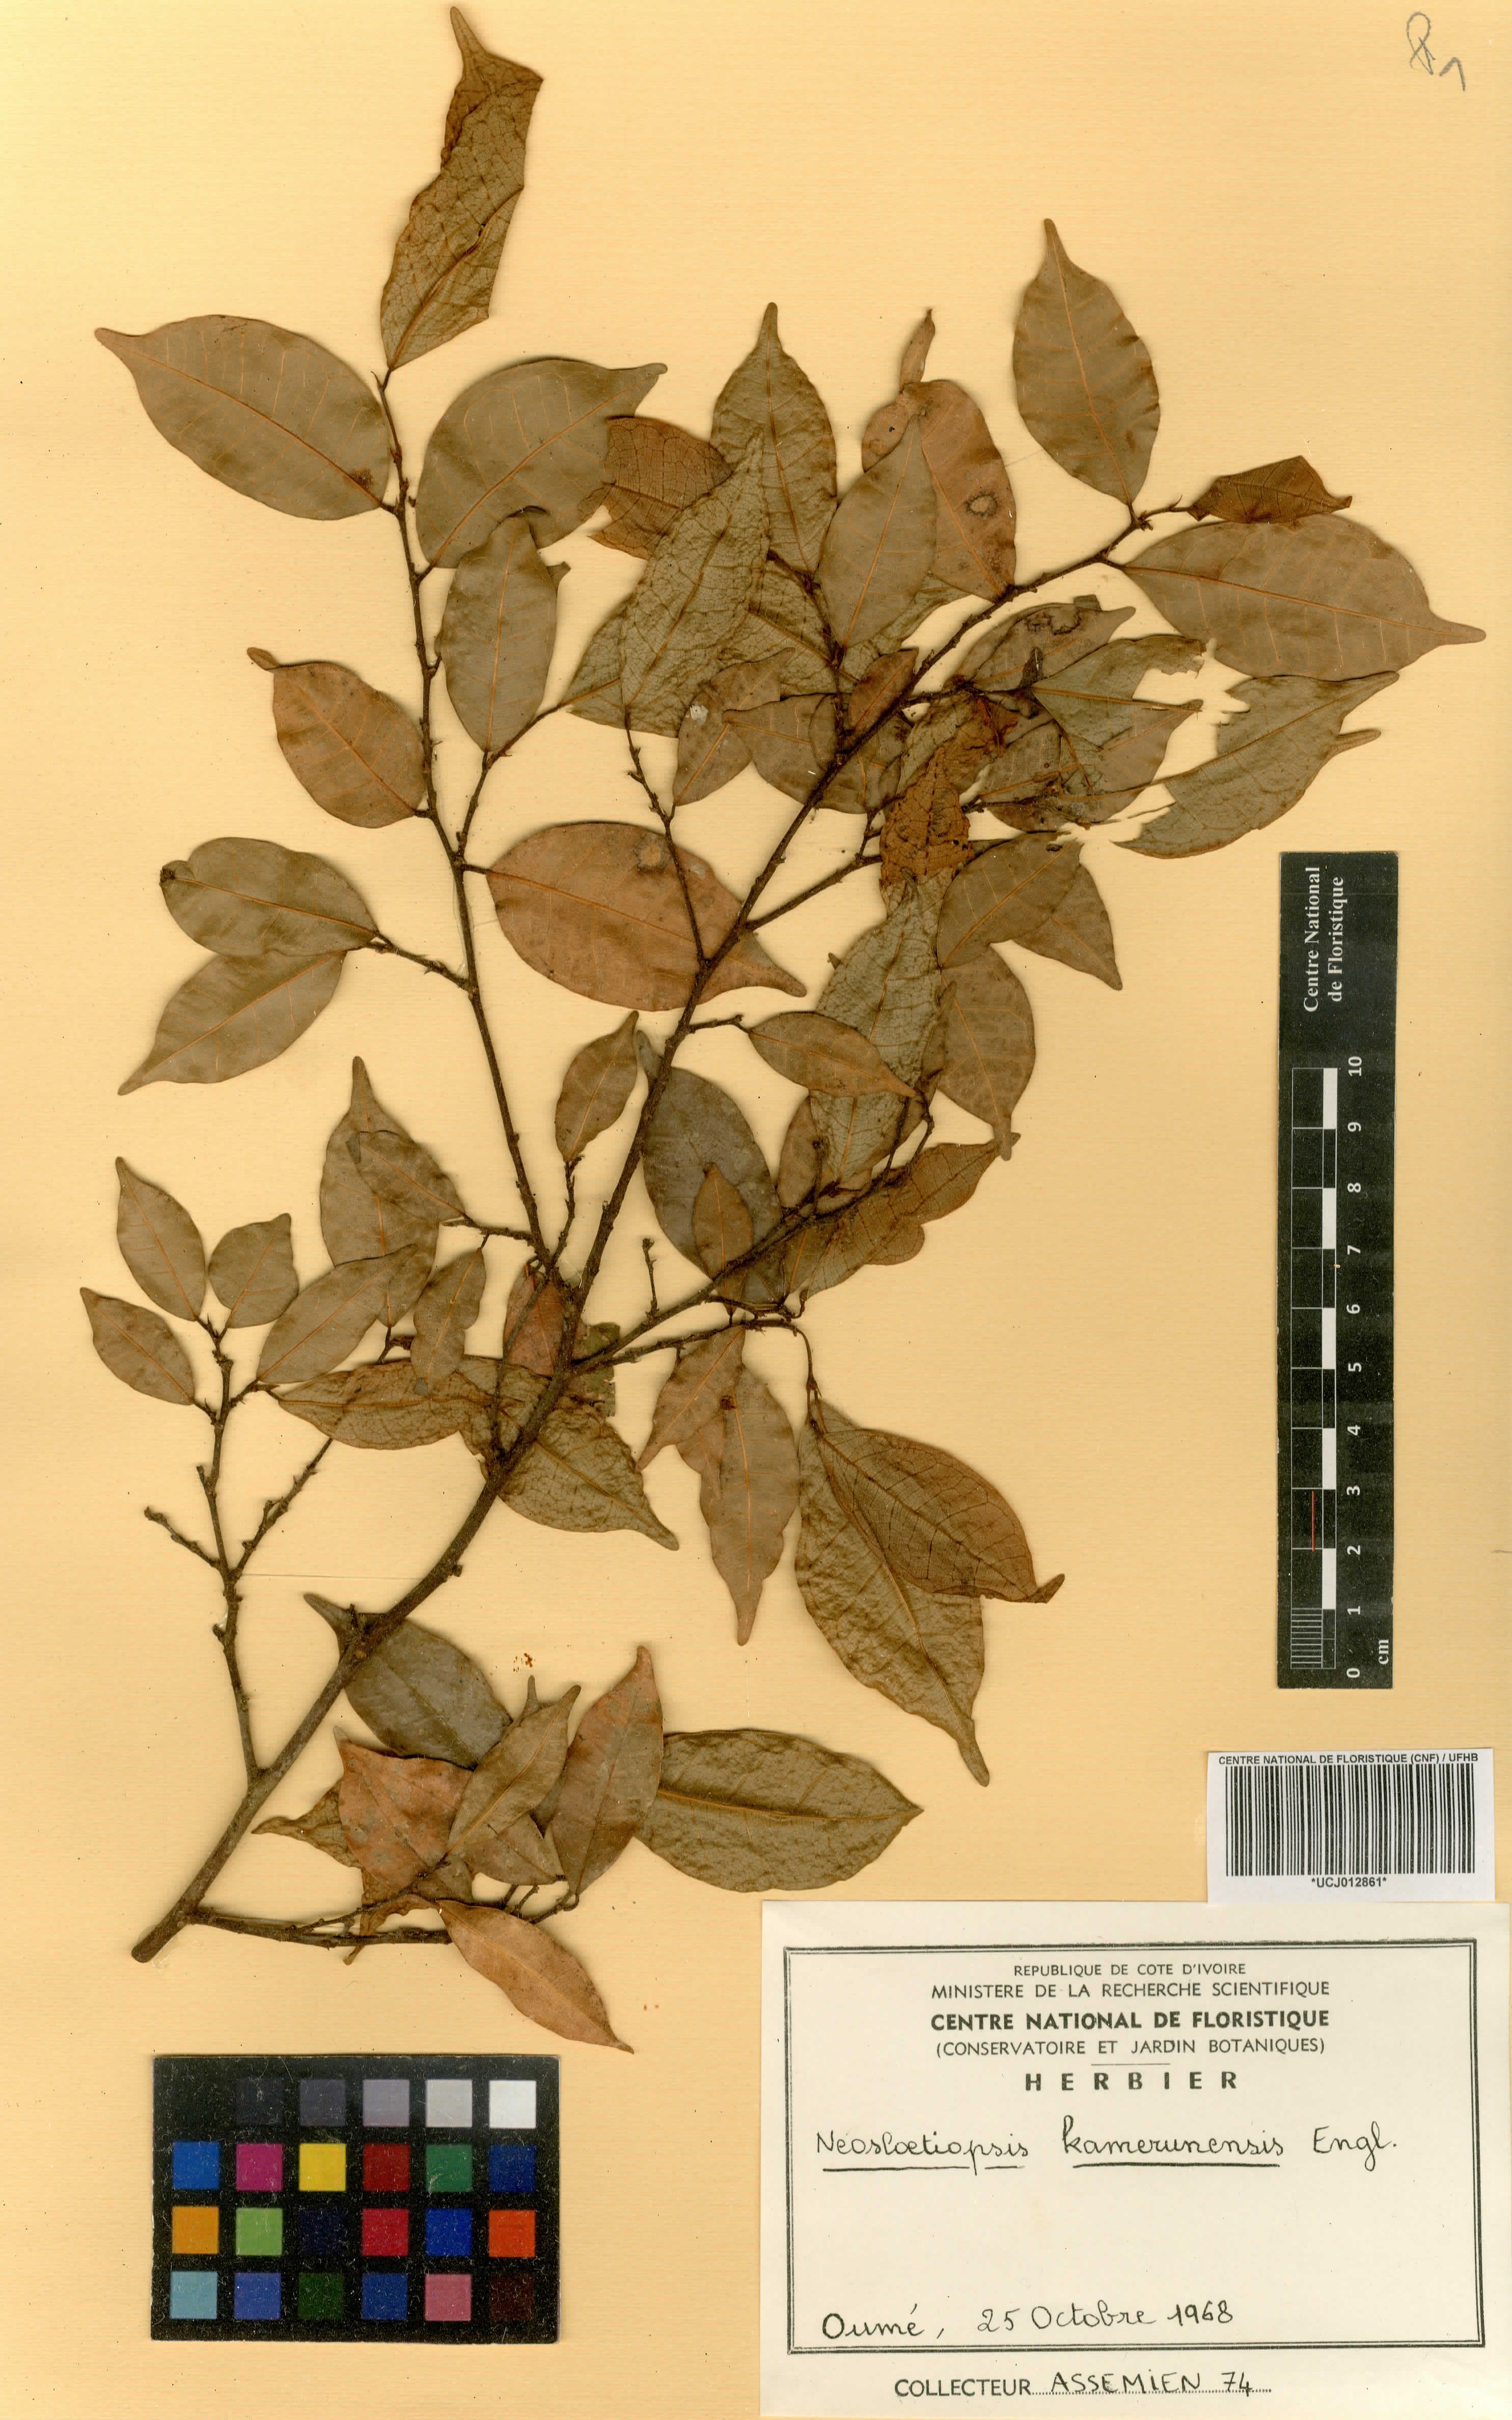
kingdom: Plantae
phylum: Tracheophyta
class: Magnoliopsida
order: Rosales
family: Moraceae
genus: Sloetiopsis
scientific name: Sloetiopsis usambarensis
